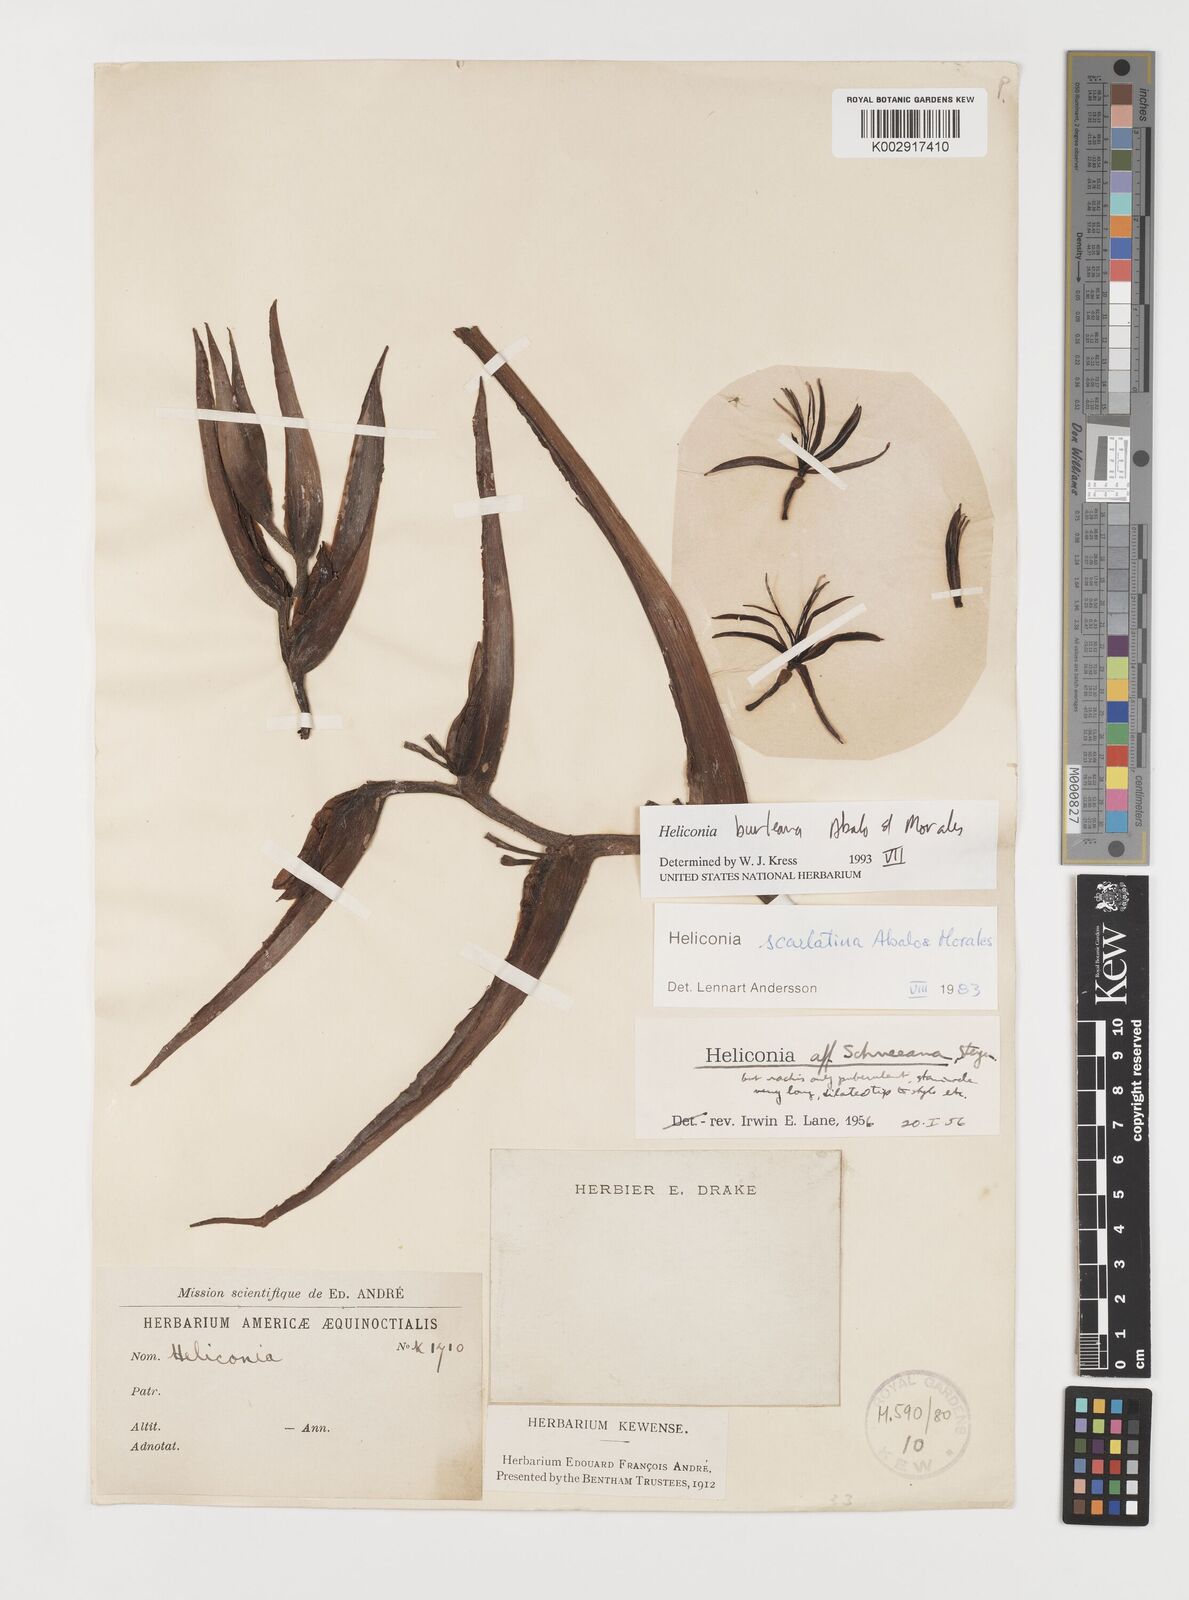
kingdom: Plantae
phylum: Tracheophyta
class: Liliopsida
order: Zingiberales
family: Heliconiaceae
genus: Heliconia
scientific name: Heliconia burleana
